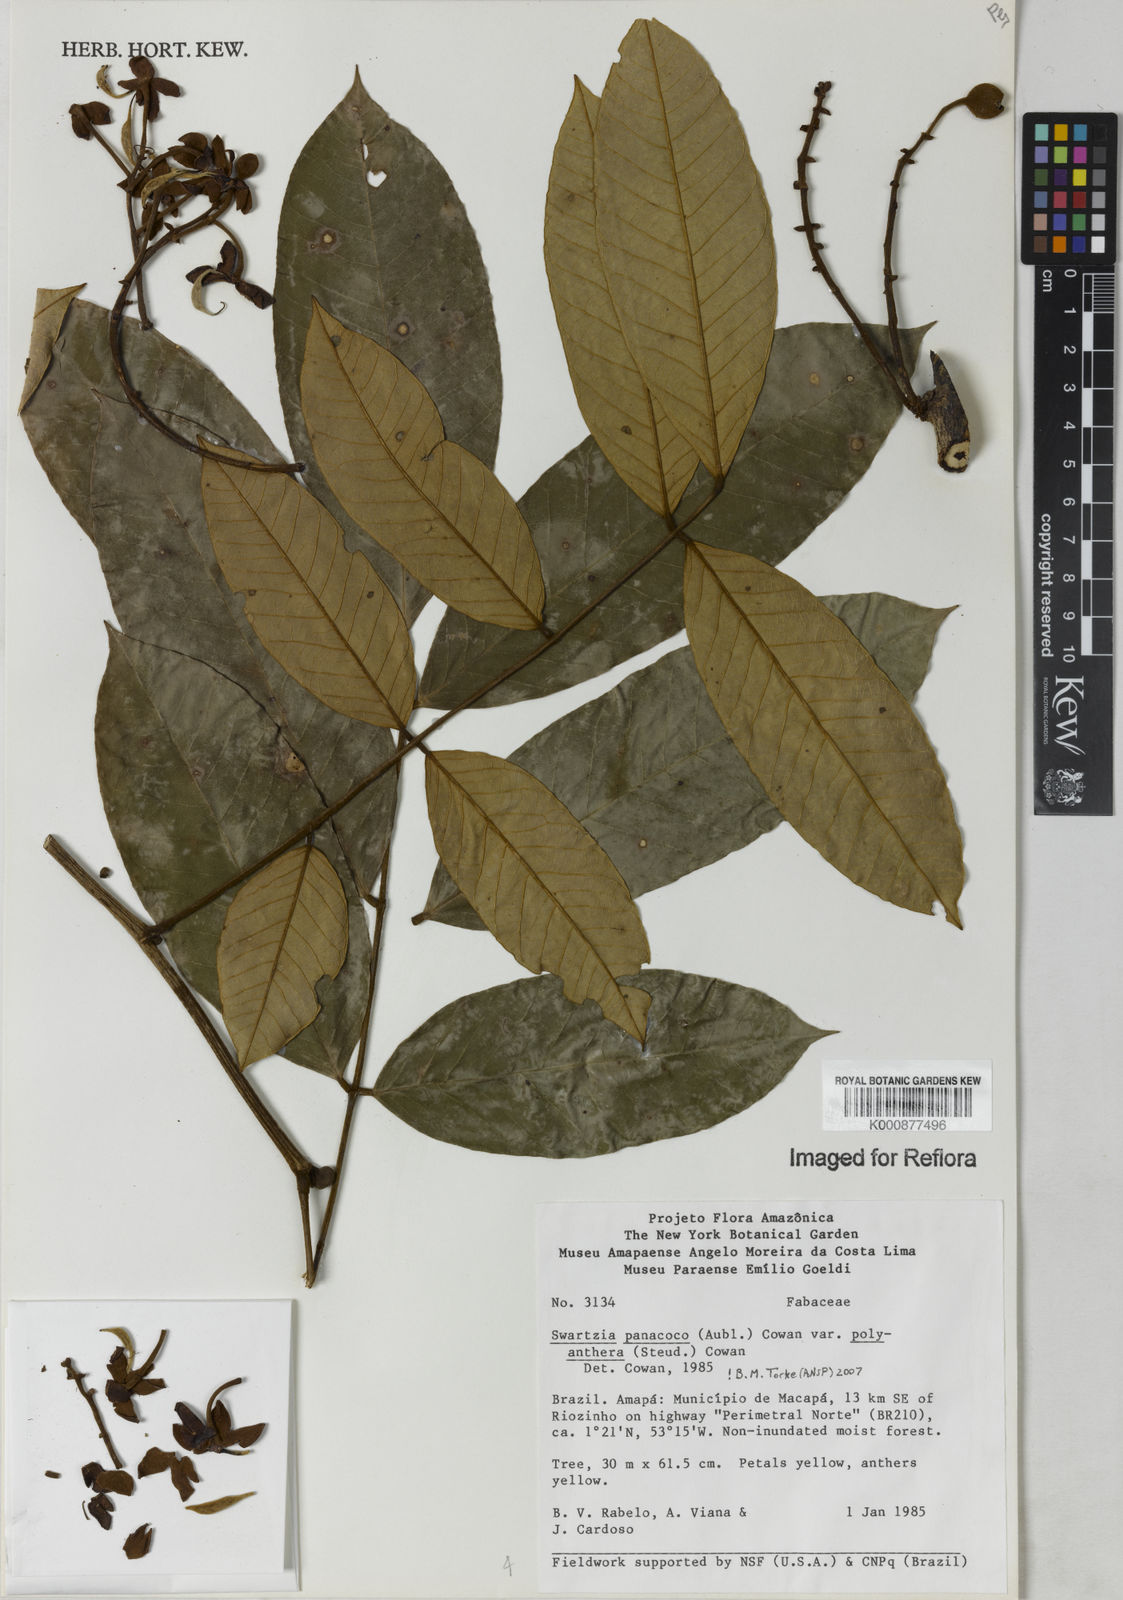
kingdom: Plantae
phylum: Tracheophyta
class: Magnoliopsida
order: Fabales
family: Fabaceae
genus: Swartzia
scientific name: Swartzia panacoco
